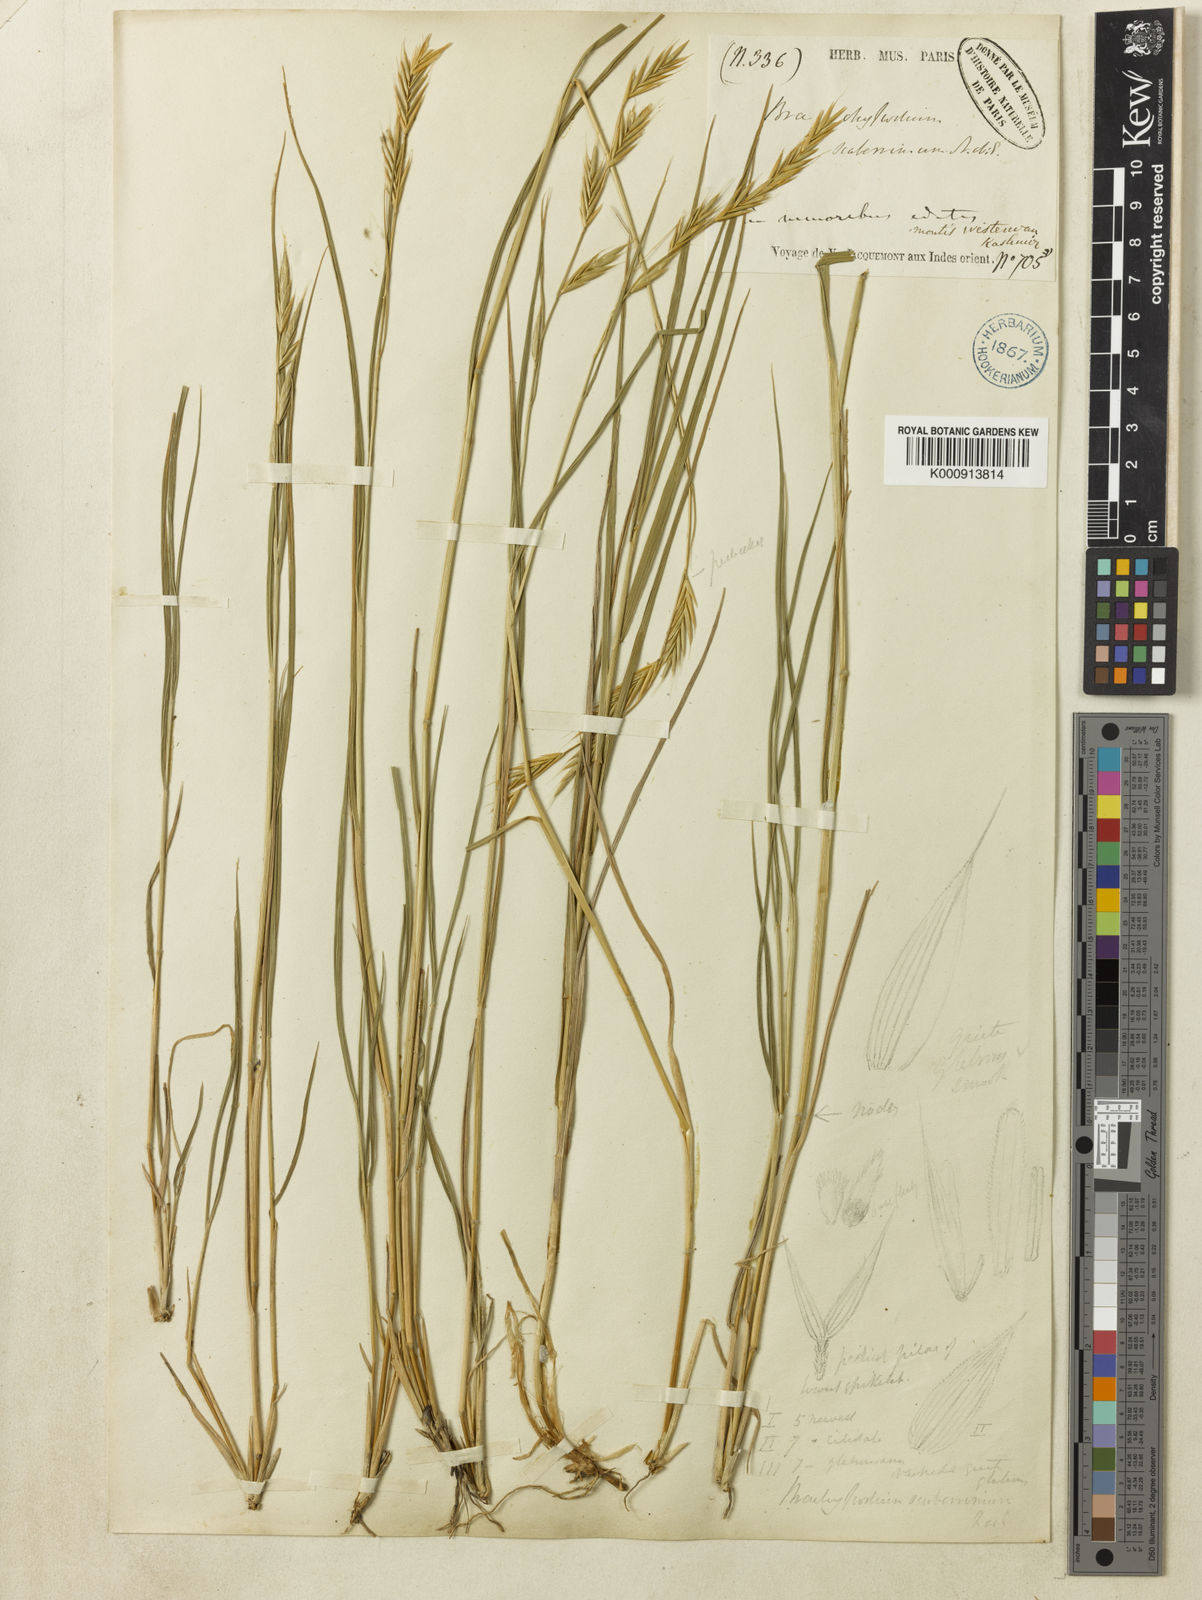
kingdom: Plantae
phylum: Tracheophyta
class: Liliopsida
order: Poales
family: Poaceae
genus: Brachypodium
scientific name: Brachypodium sylvaticum
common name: False-brome
